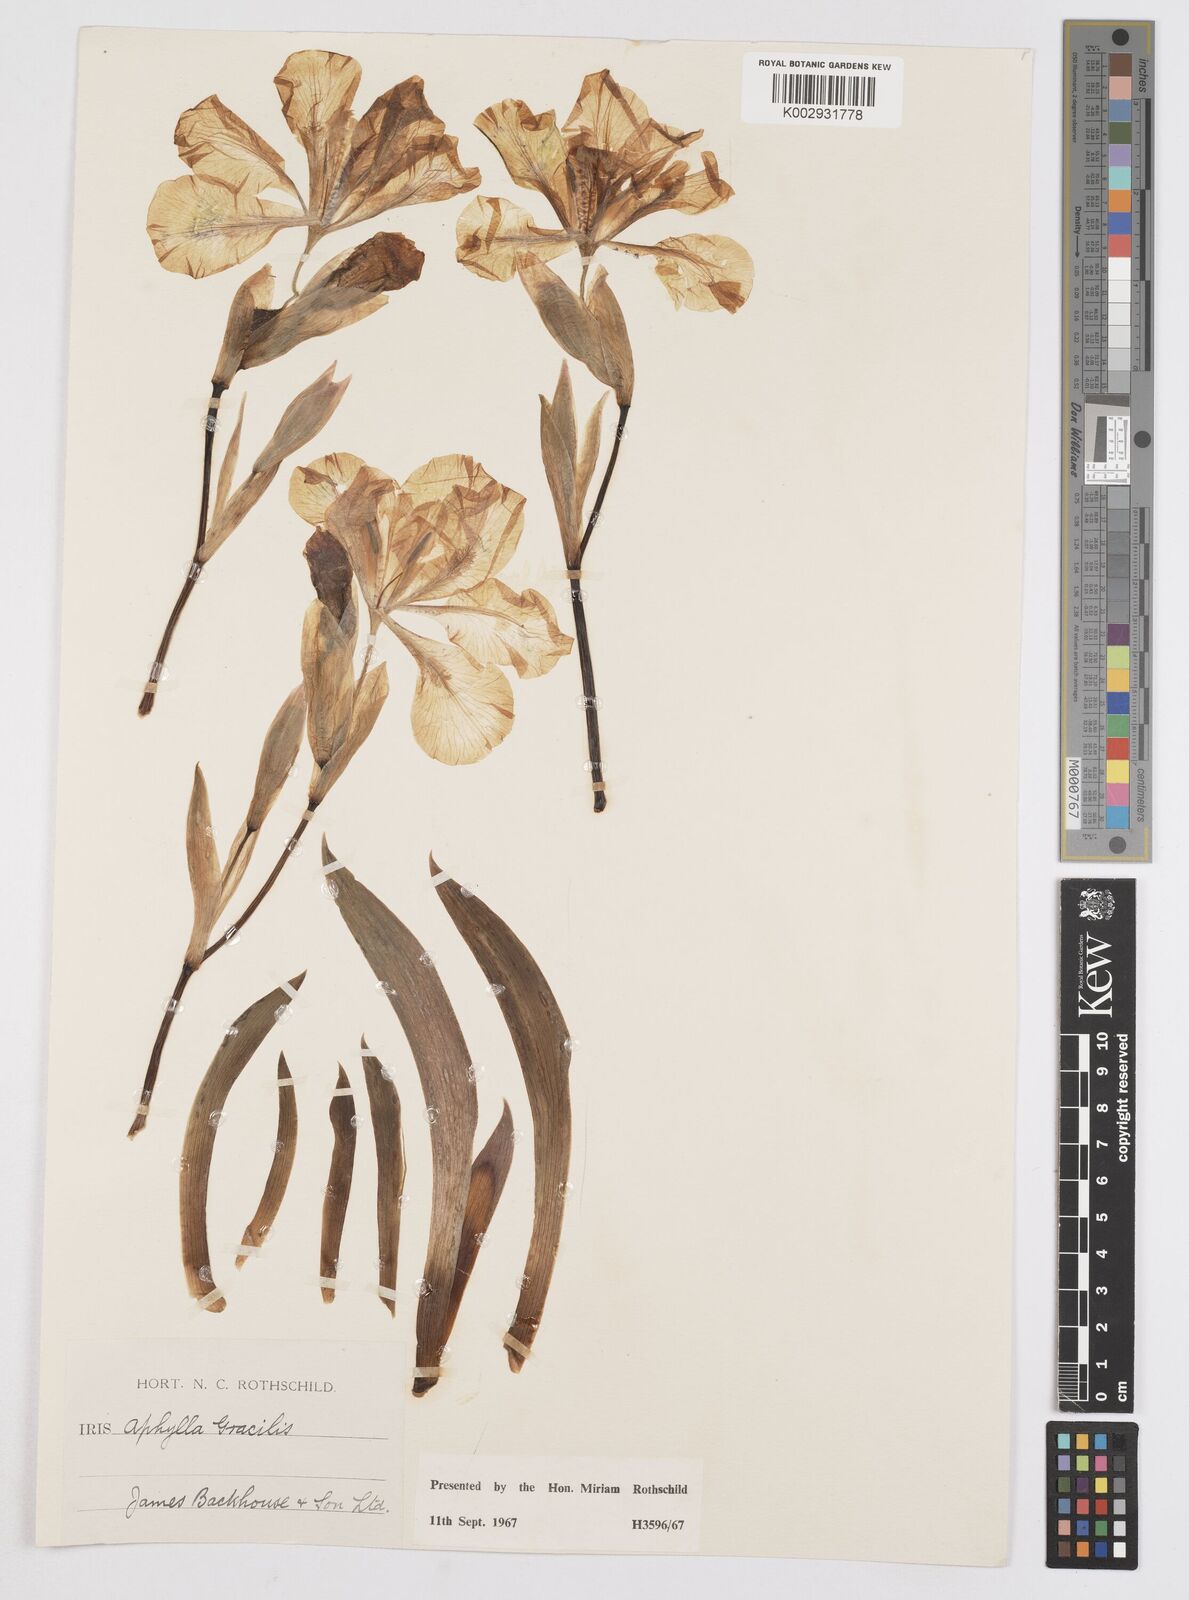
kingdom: Plantae
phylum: Tracheophyta
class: Liliopsida
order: Asparagales
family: Iridaceae
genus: Iris
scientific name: Iris aphylla
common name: Stool iris
